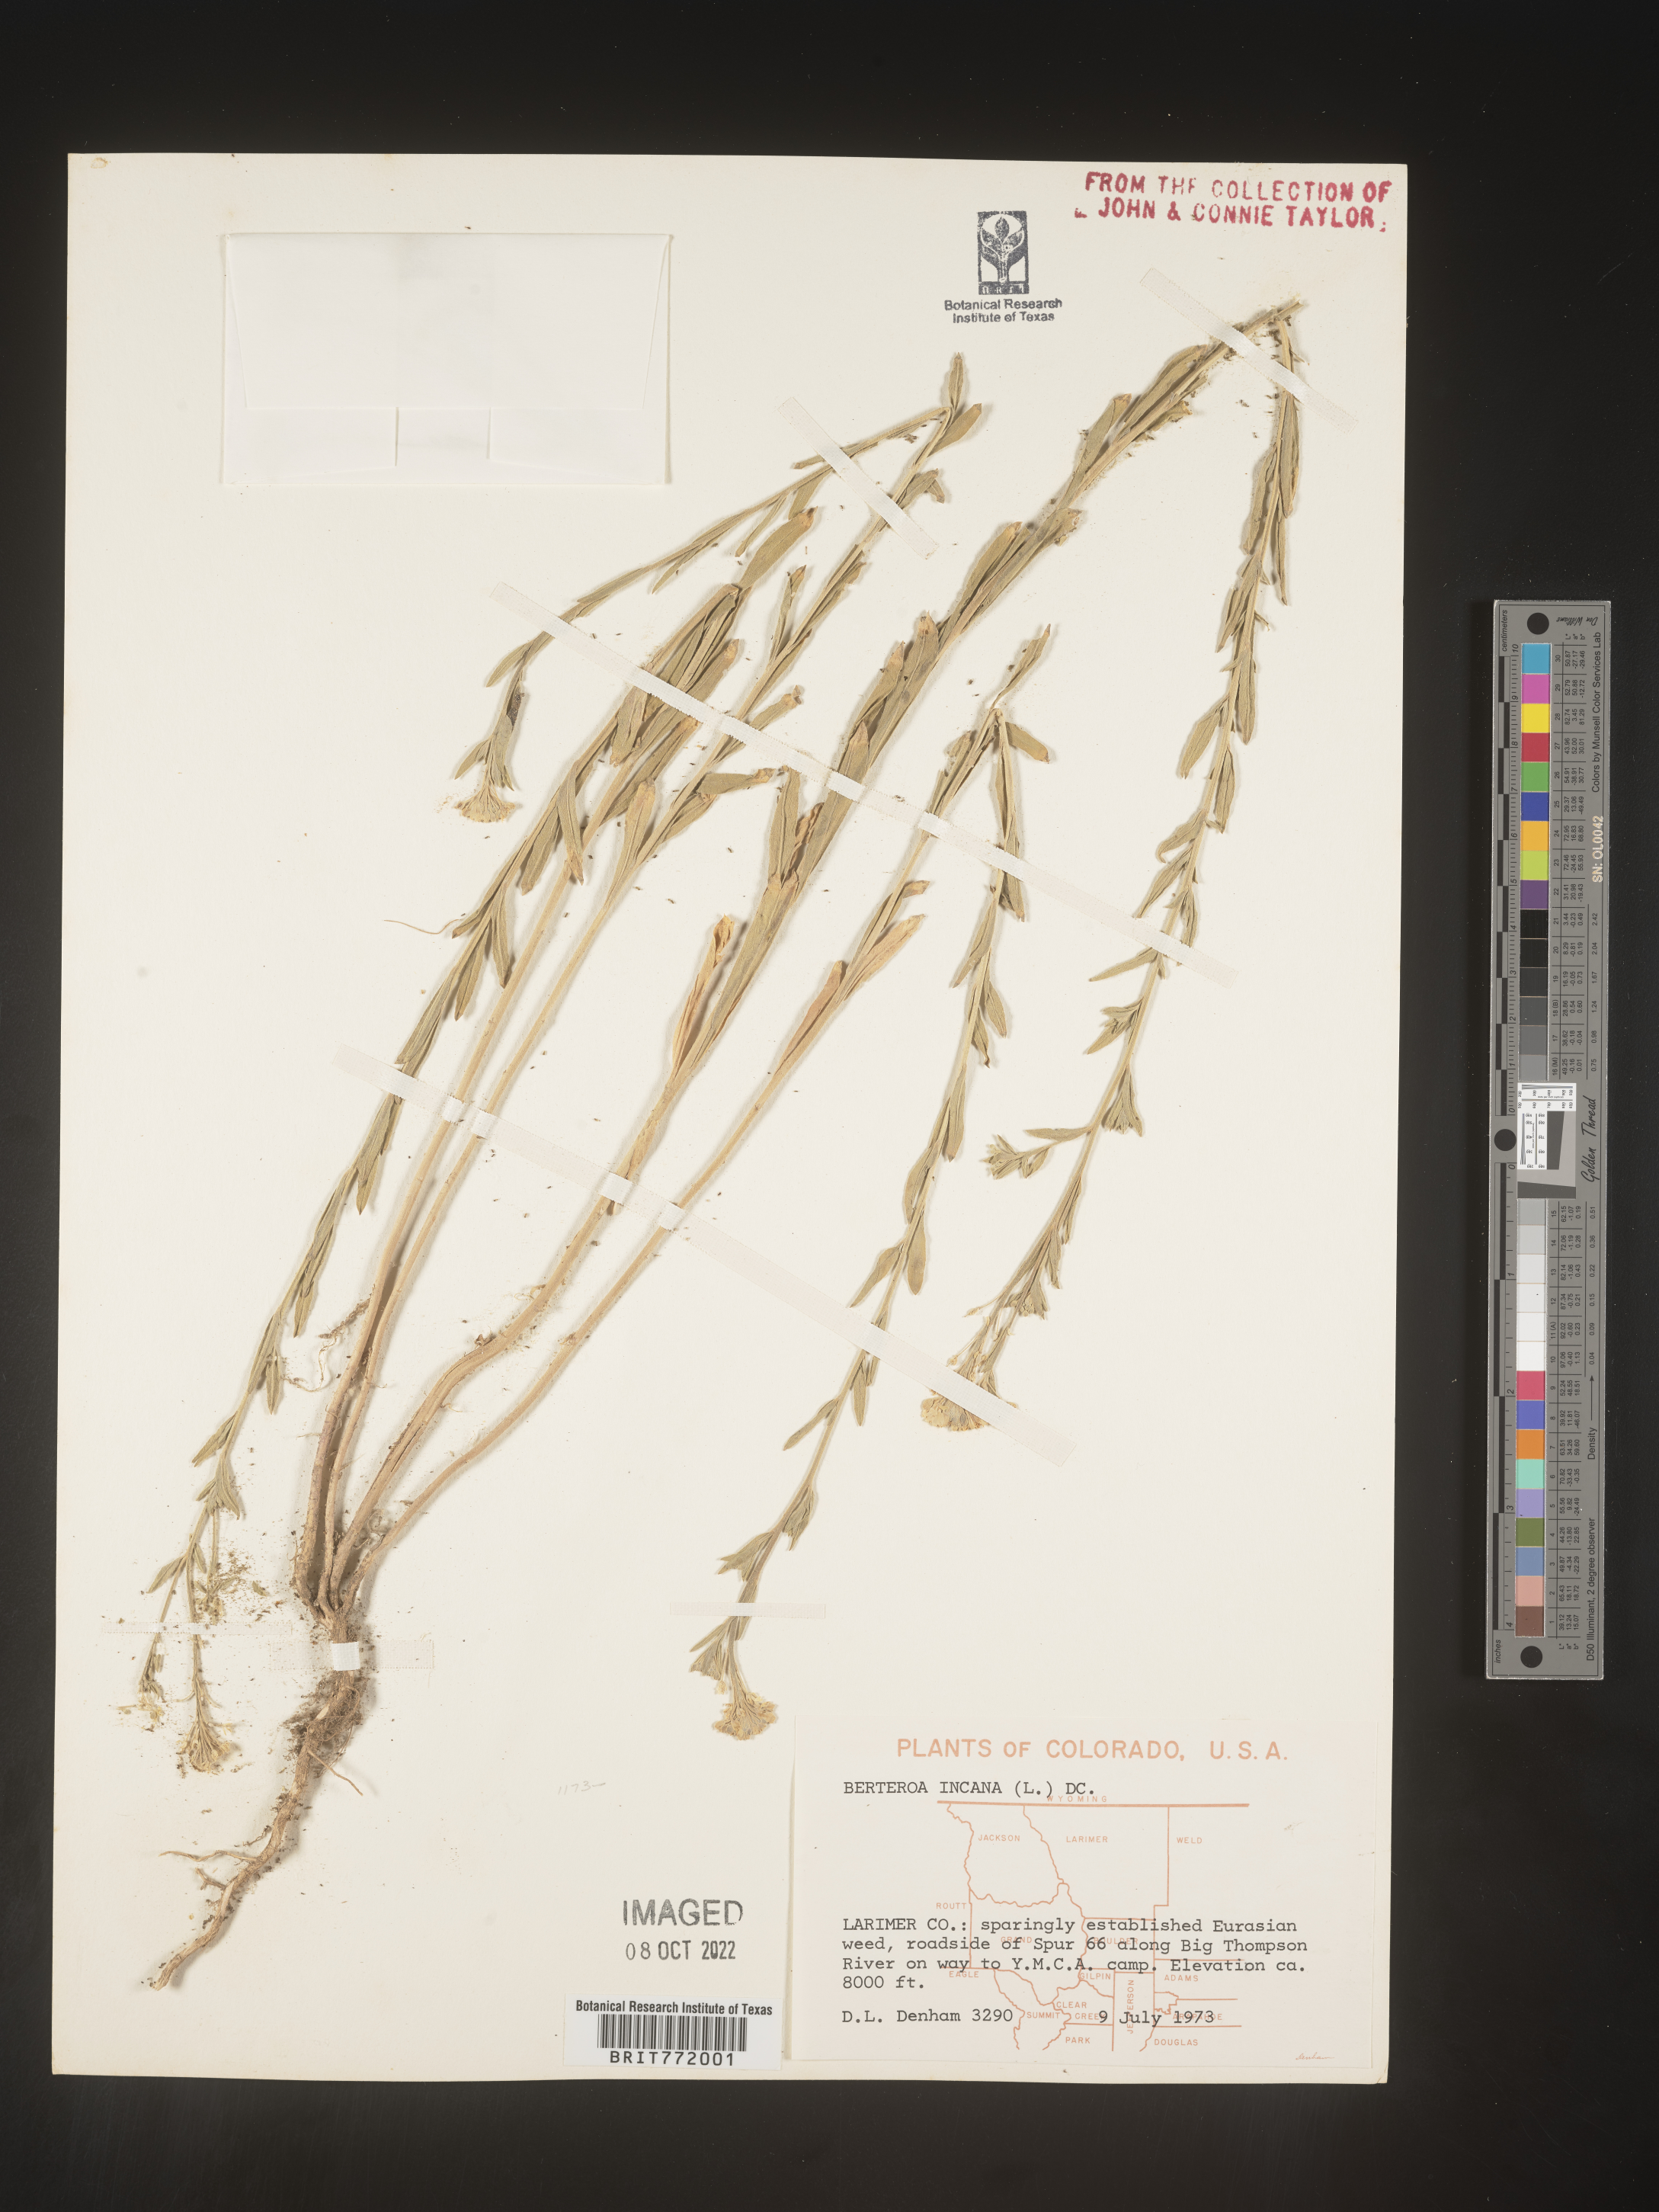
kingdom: Plantae
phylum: Tracheophyta
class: Magnoliopsida
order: Brassicales
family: Brassicaceae
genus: Berteroa
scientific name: Berteroa incana
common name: Hoary alison
